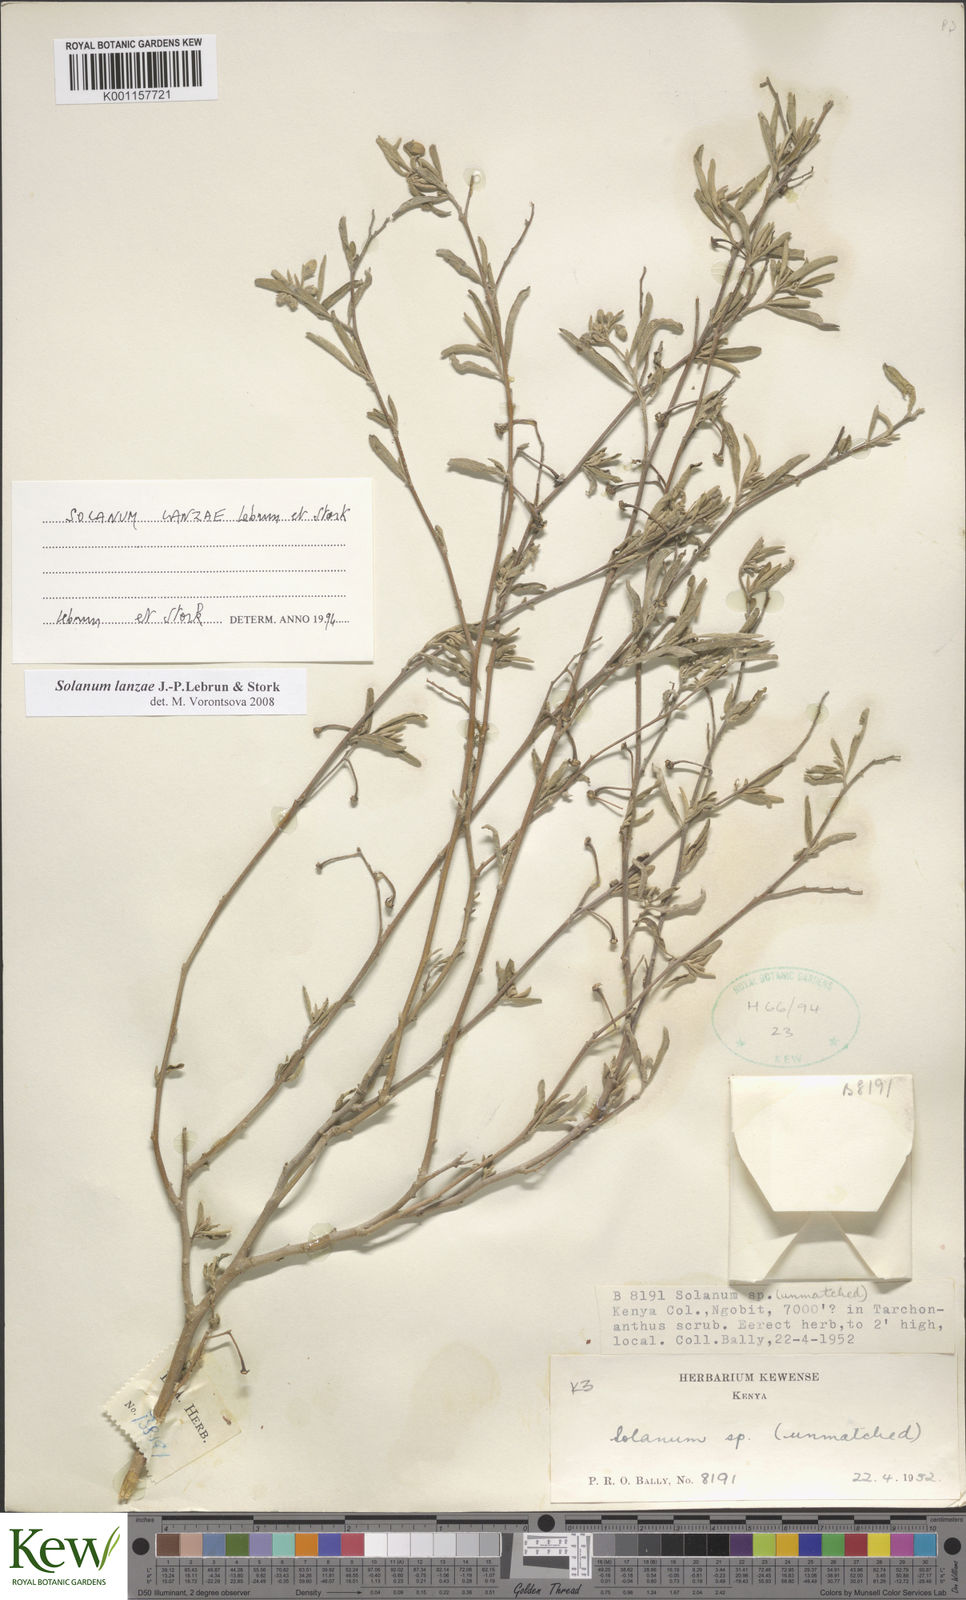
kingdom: Plantae
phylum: Tracheophyta
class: Magnoliopsida
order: Solanales
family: Solanaceae
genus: Solanum
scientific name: Solanum lanzae
